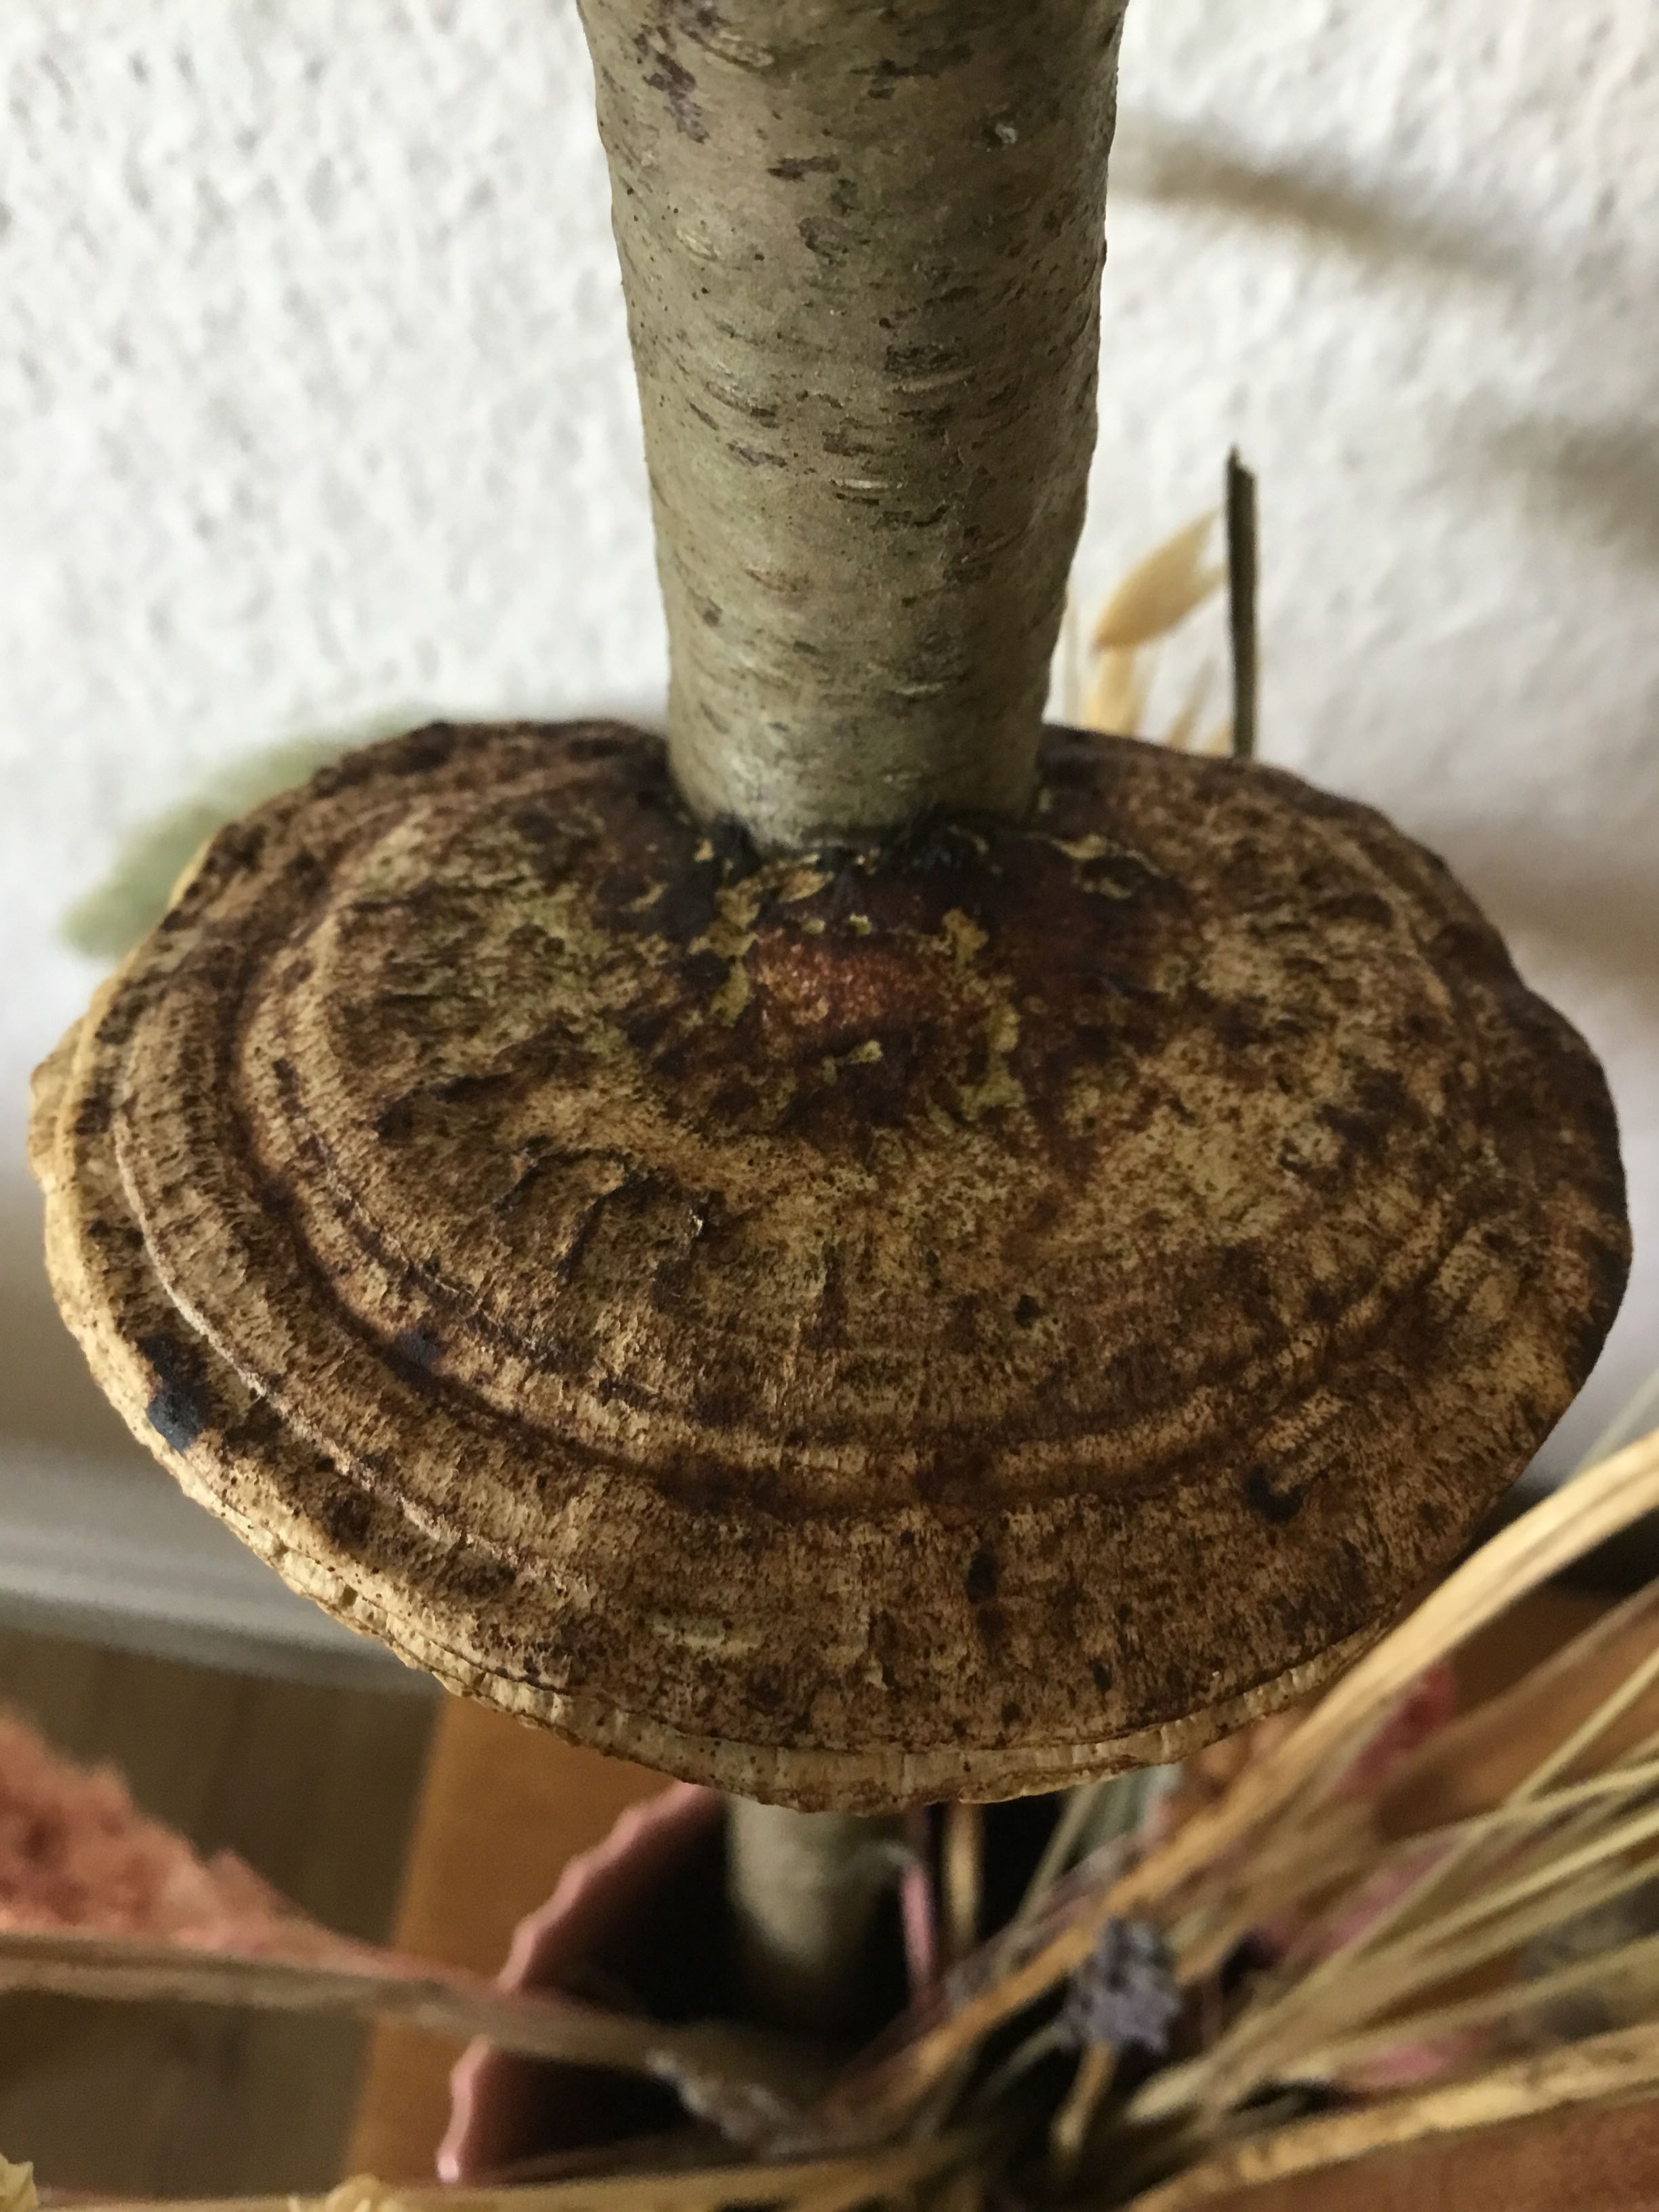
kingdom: Fungi
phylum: Basidiomycota
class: Agaricomycetes
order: Polyporales
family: Polyporaceae
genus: Daedaleopsis
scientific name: Daedaleopsis confragosa
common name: rødmende læderporesvamp
